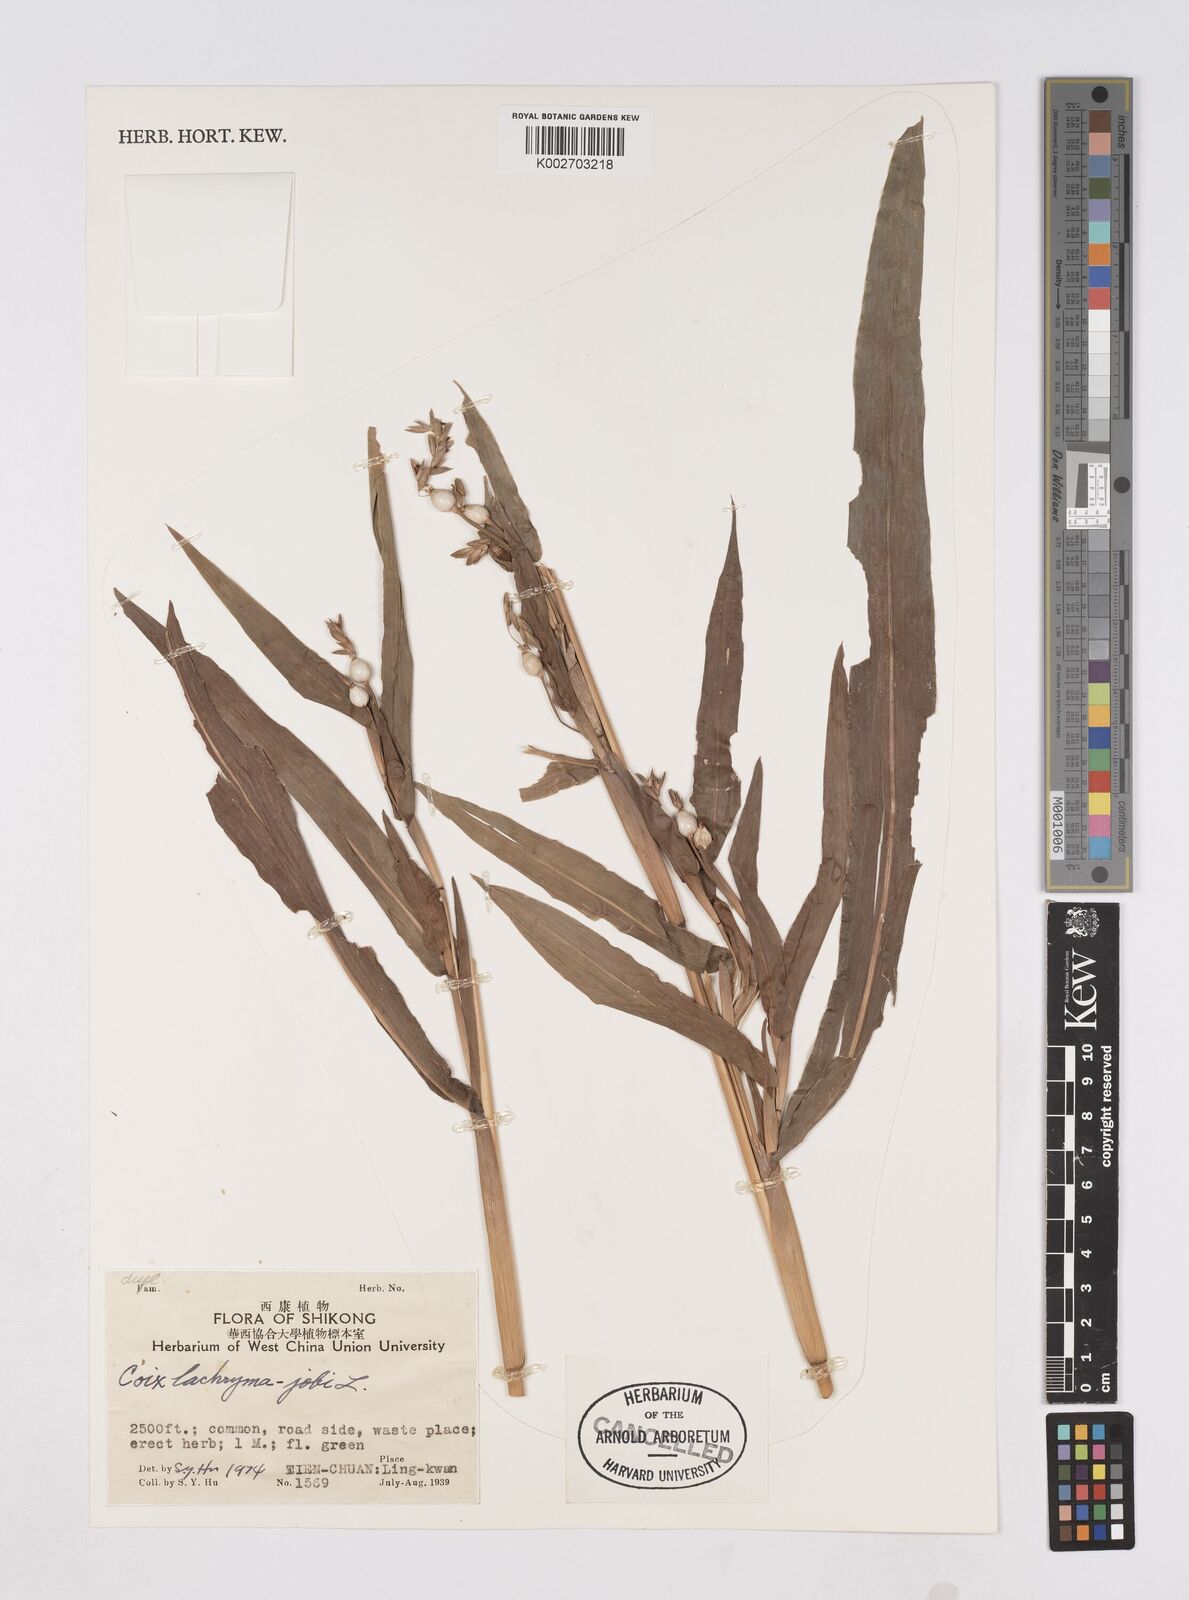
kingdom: Plantae
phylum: Tracheophyta
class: Liliopsida
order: Poales
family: Poaceae
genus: Coix
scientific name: Coix lacryma-jobi
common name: Job's tears
